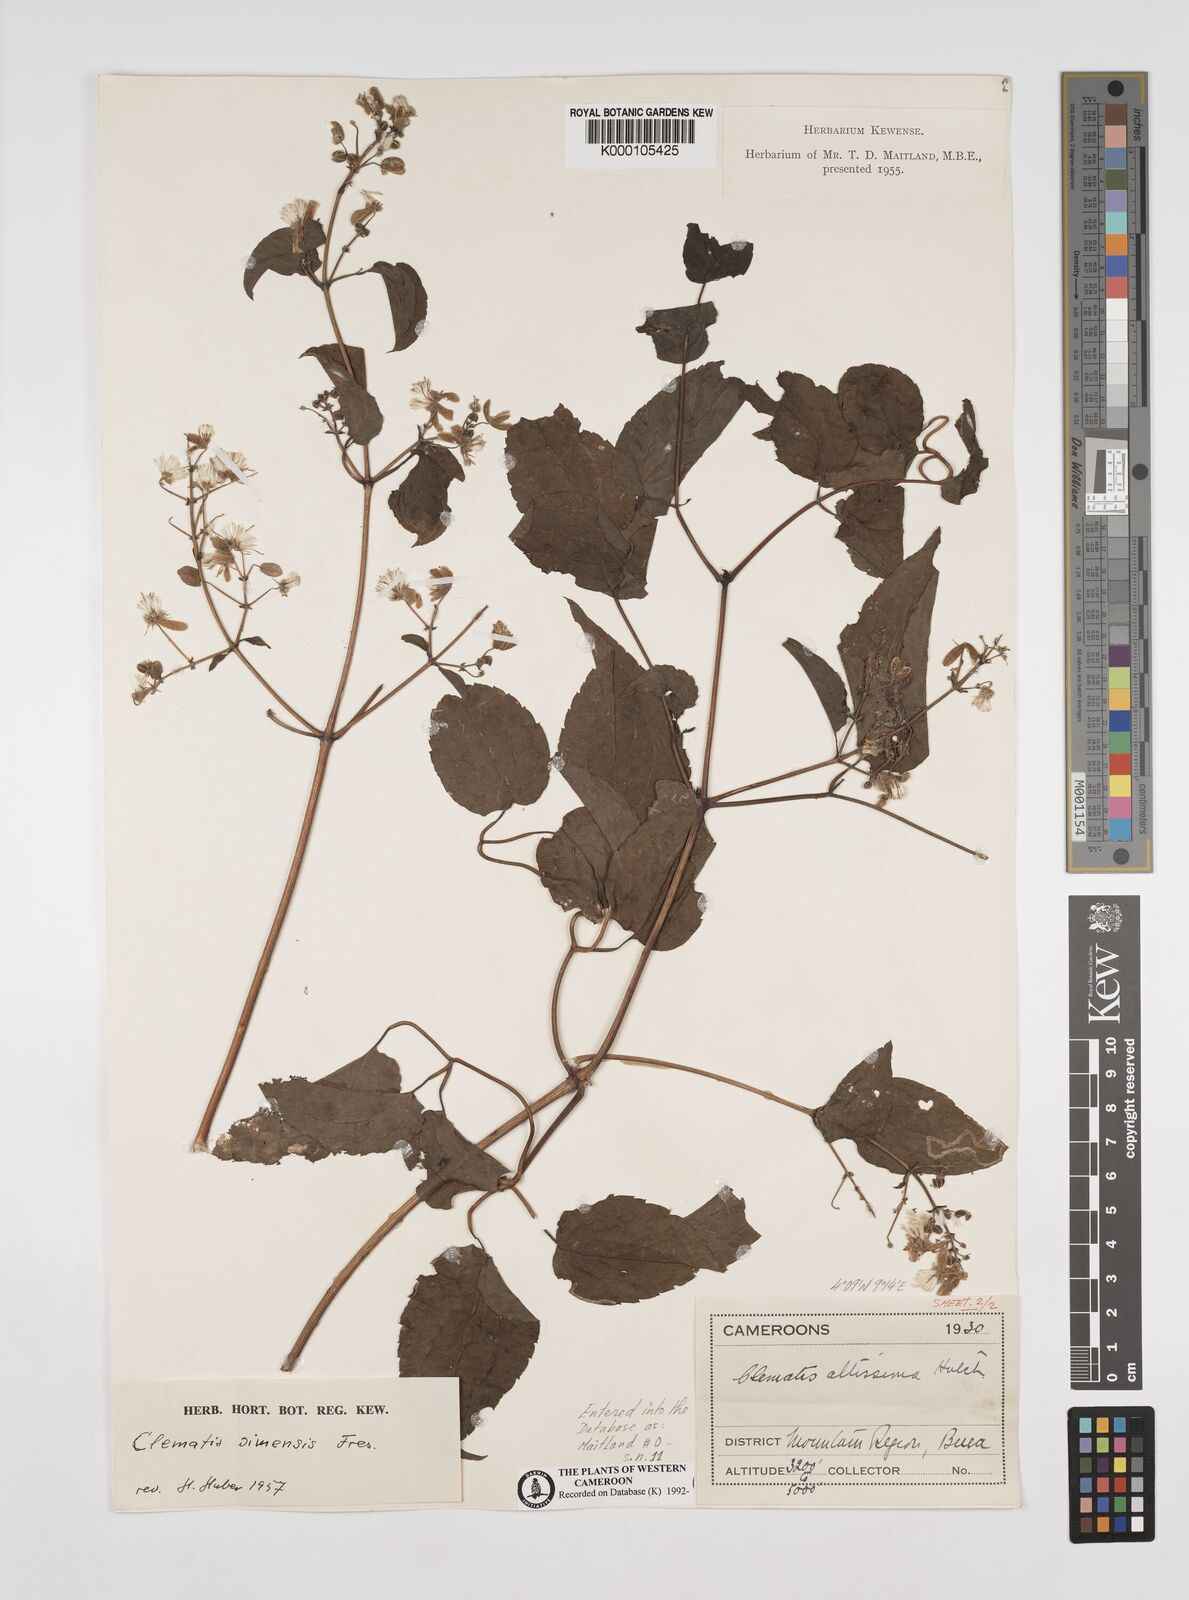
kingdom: Plantae
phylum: Tracheophyta
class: Magnoliopsida
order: Ranunculales
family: Ranunculaceae
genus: Clematis
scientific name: Clematis simensis
